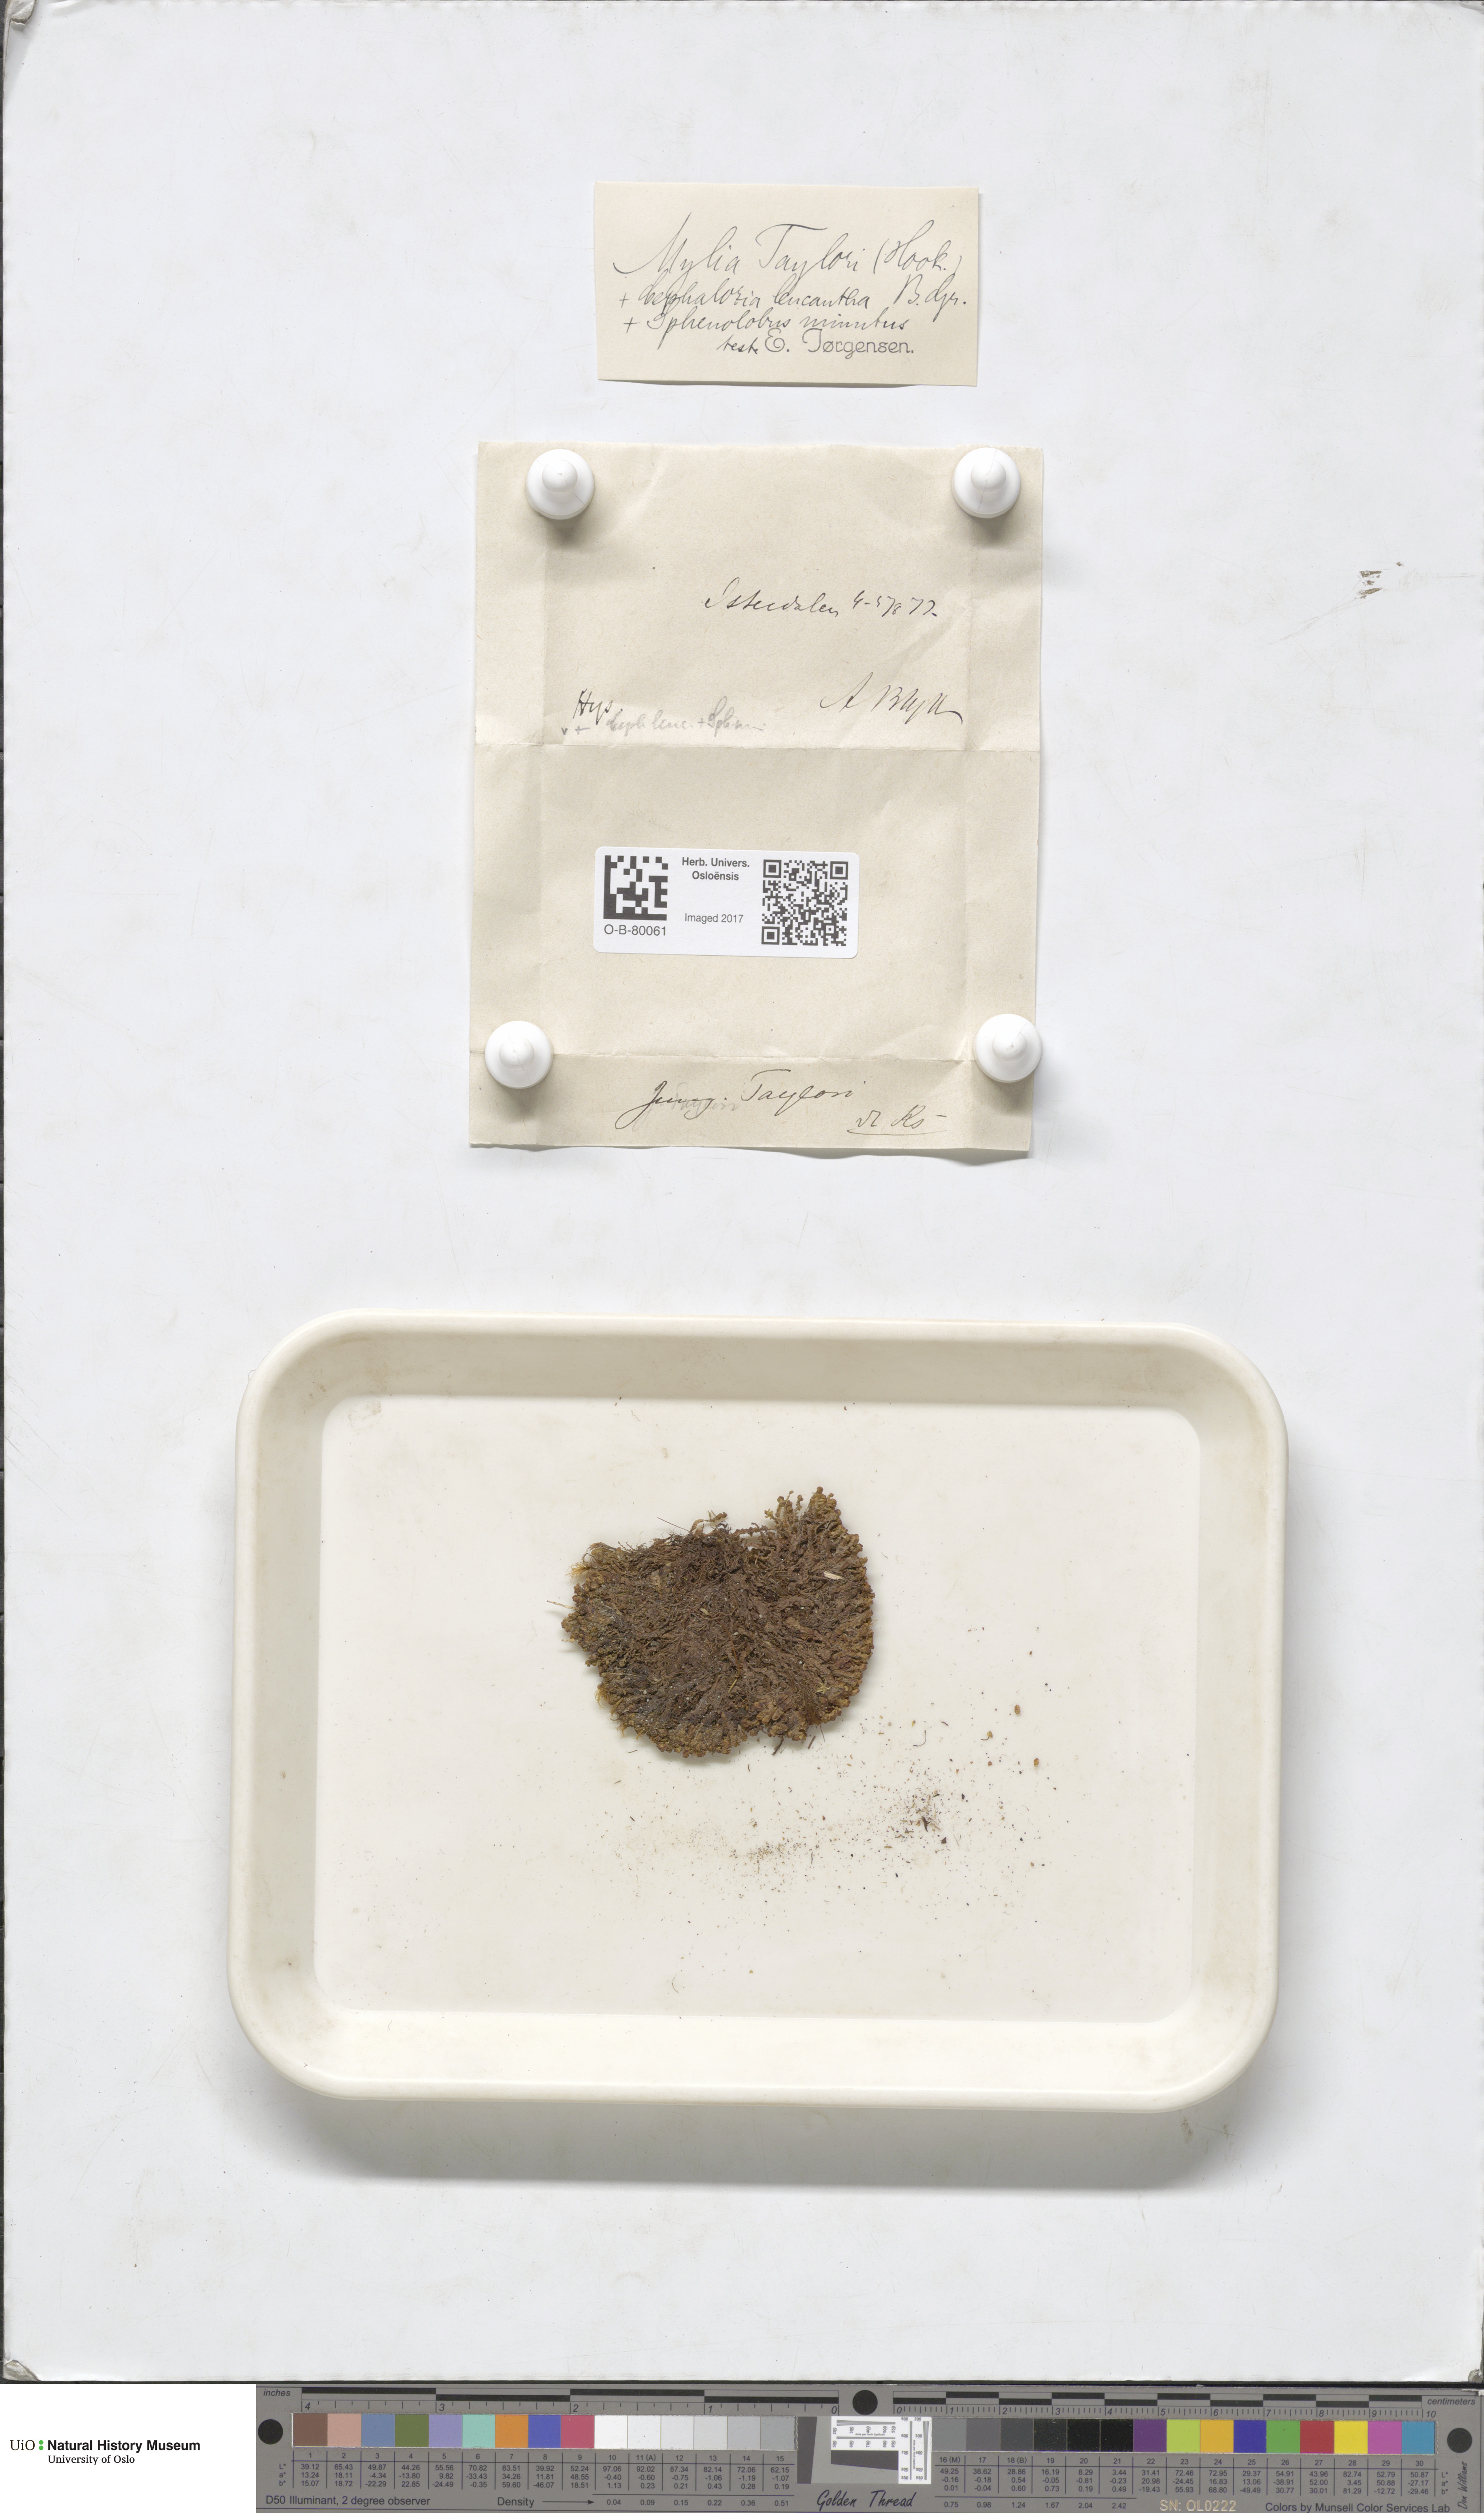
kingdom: Plantae
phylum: Marchantiophyta
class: Jungermanniopsida
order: Jungermanniales
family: Myliaceae
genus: Mylia
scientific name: Mylia taylorii
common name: Taylor s flapwort
